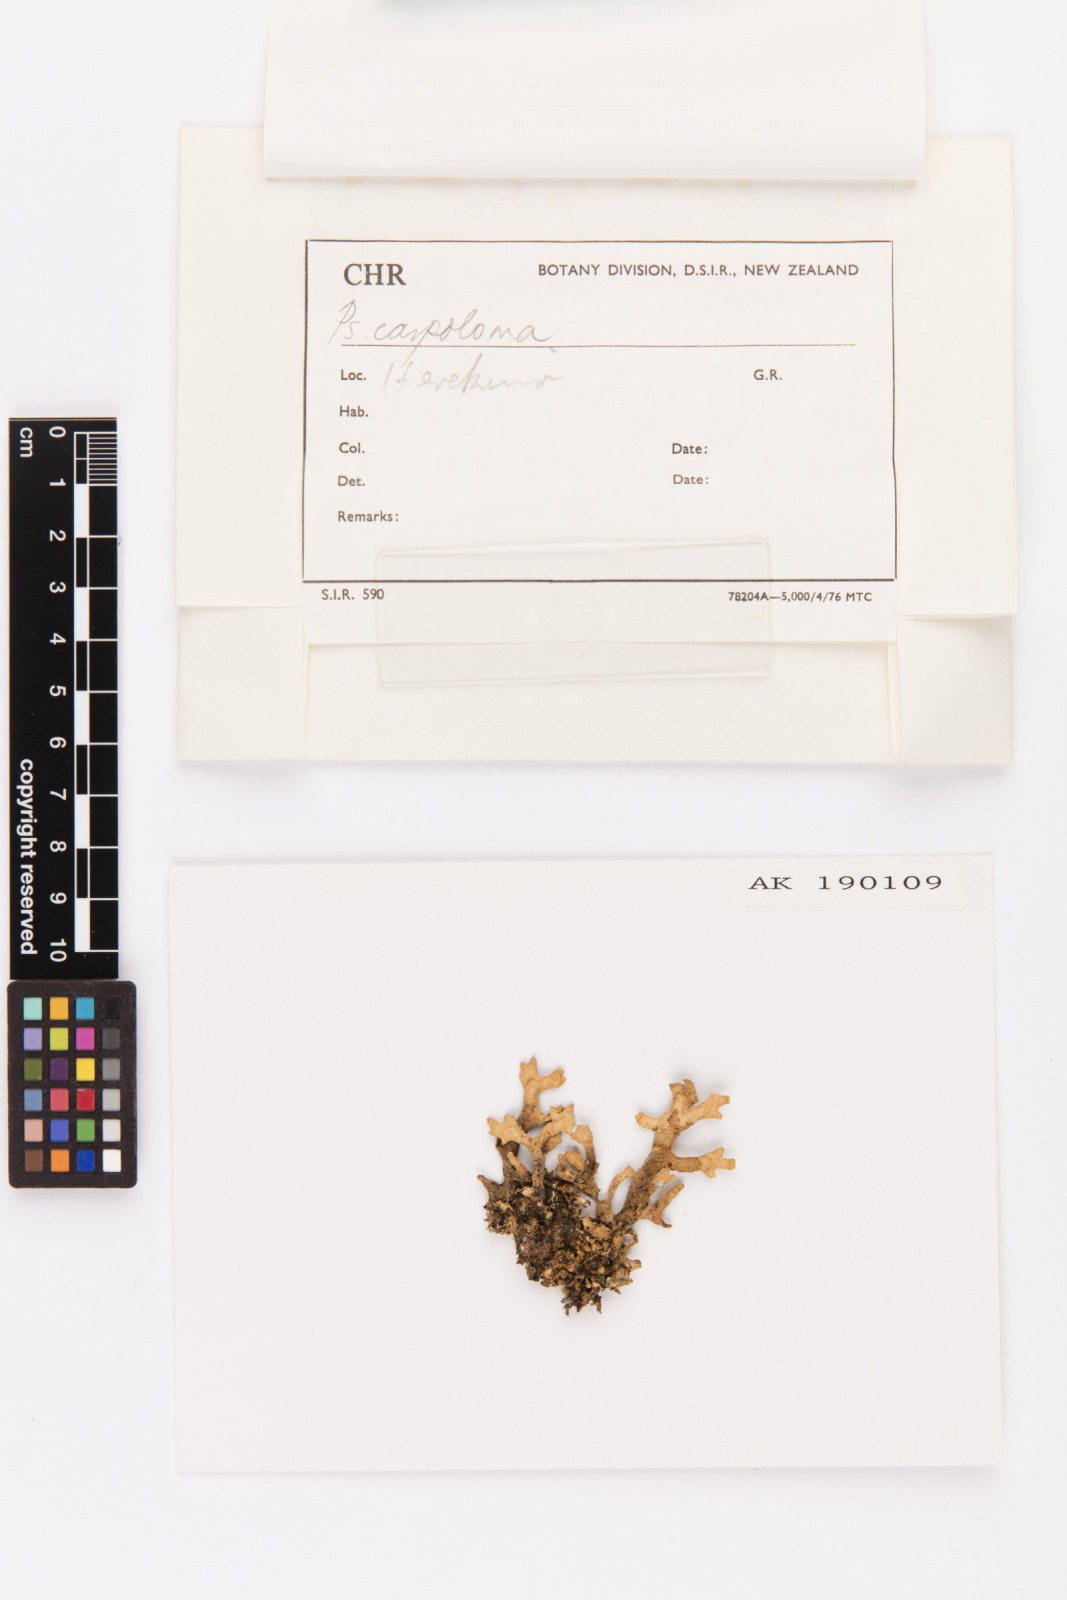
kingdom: Fungi
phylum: Ascomycota
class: Lecanoromycetes
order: Peltigerales
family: Lobariaceae
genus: Pseudocyphellaria
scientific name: Pseudocyphellaria carpoloma
